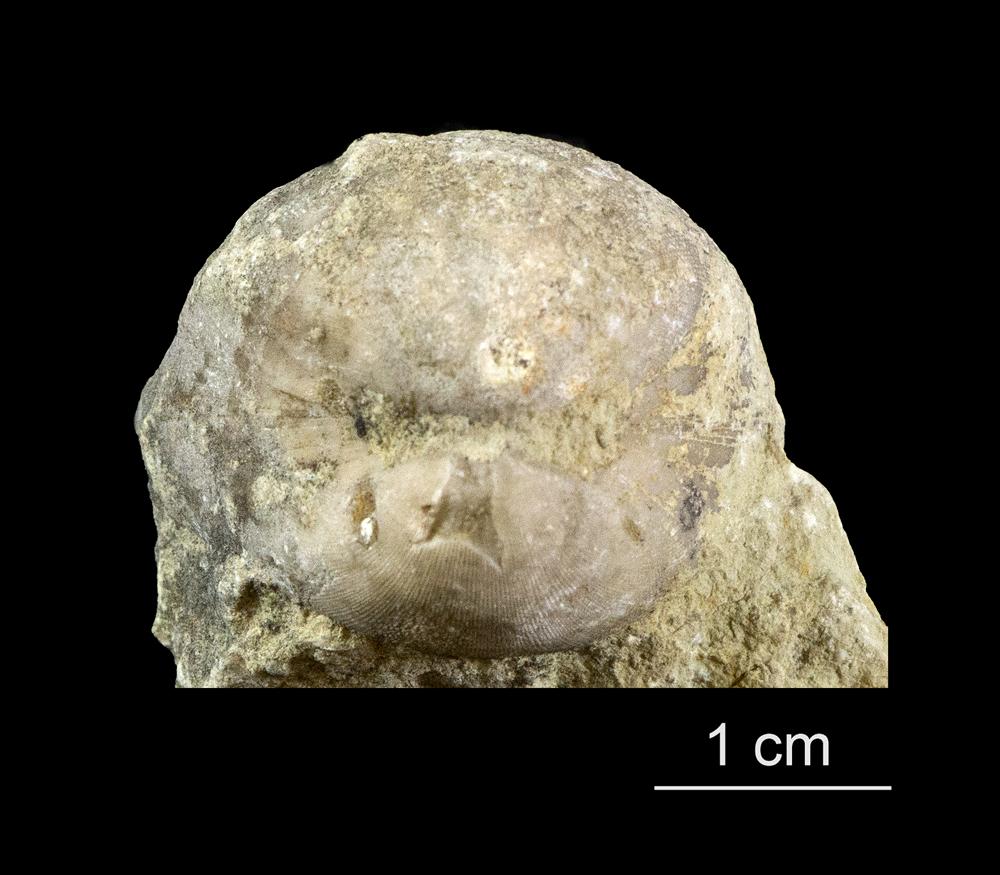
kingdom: Animalia
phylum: Brachiopoda
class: Rhynchonellata
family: Porambonitidae
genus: Porambonites
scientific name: Porambonites schmidti
